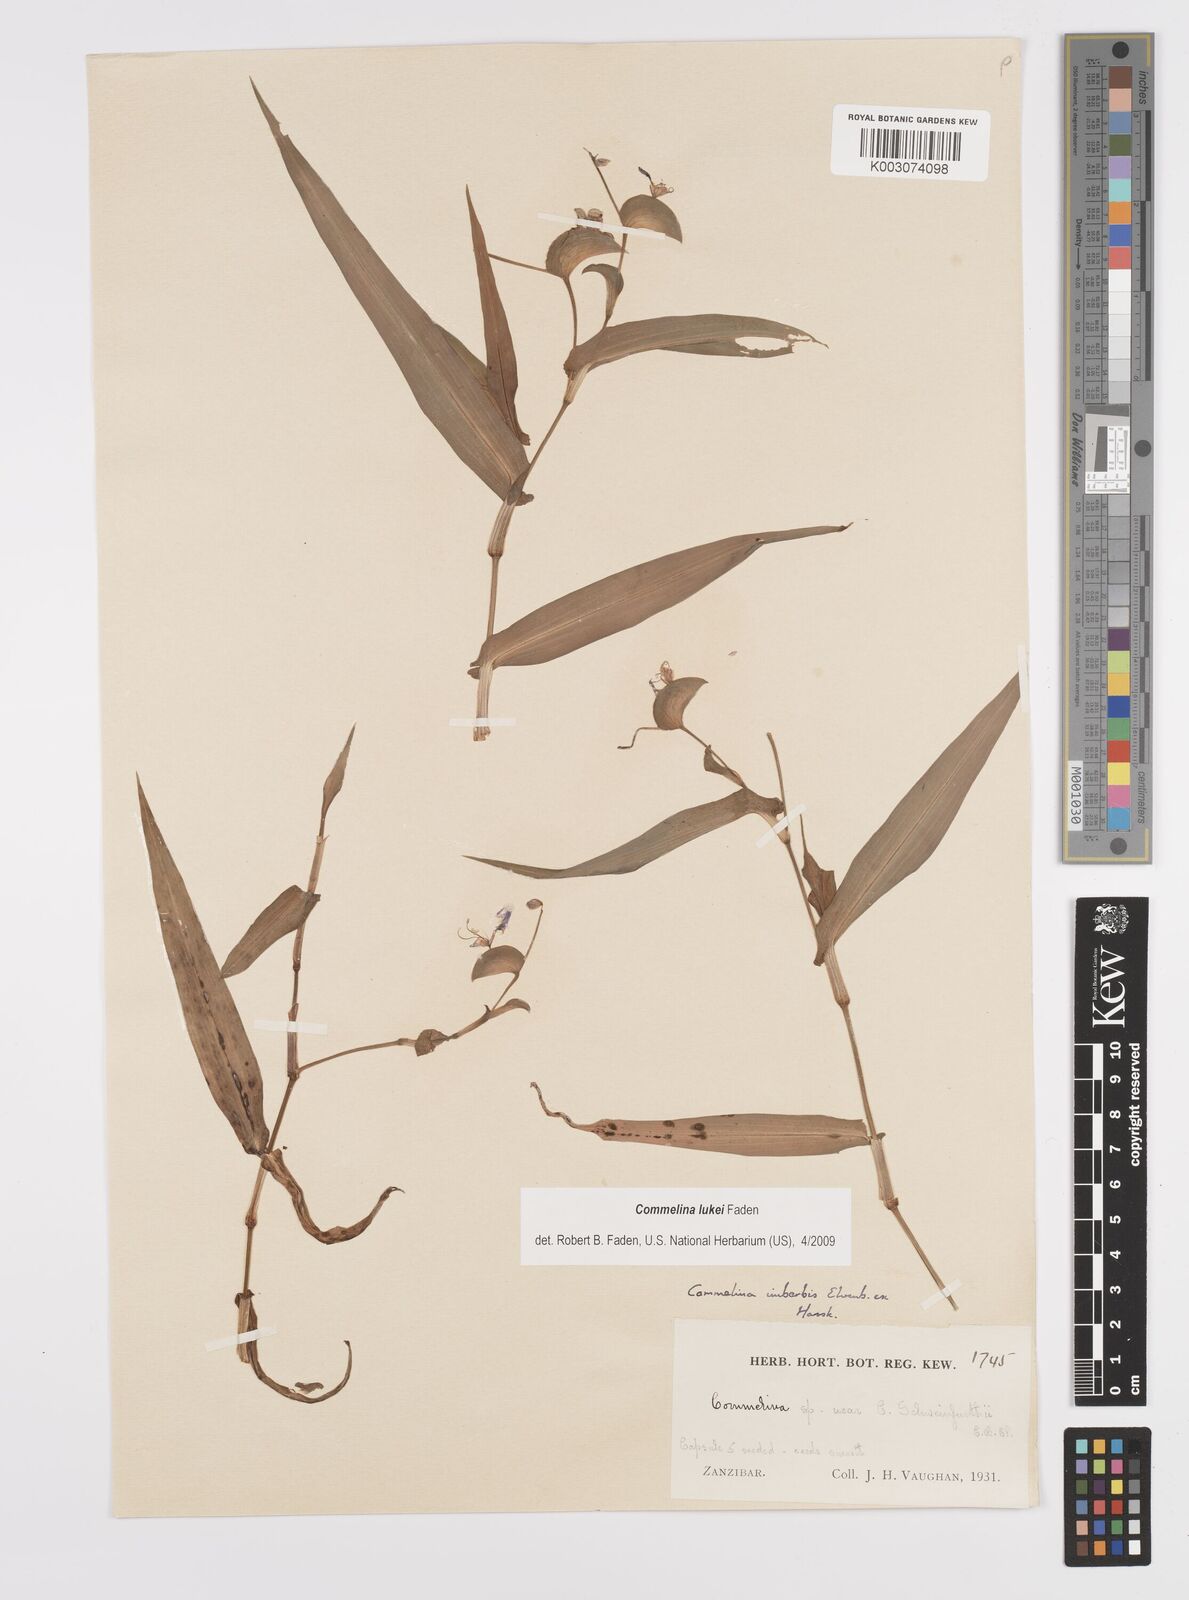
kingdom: Plantae
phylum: Tracheophyta
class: Liliopsida
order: Commelinales
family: Commelinaceae
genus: Commelina
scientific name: Commelina lukei
